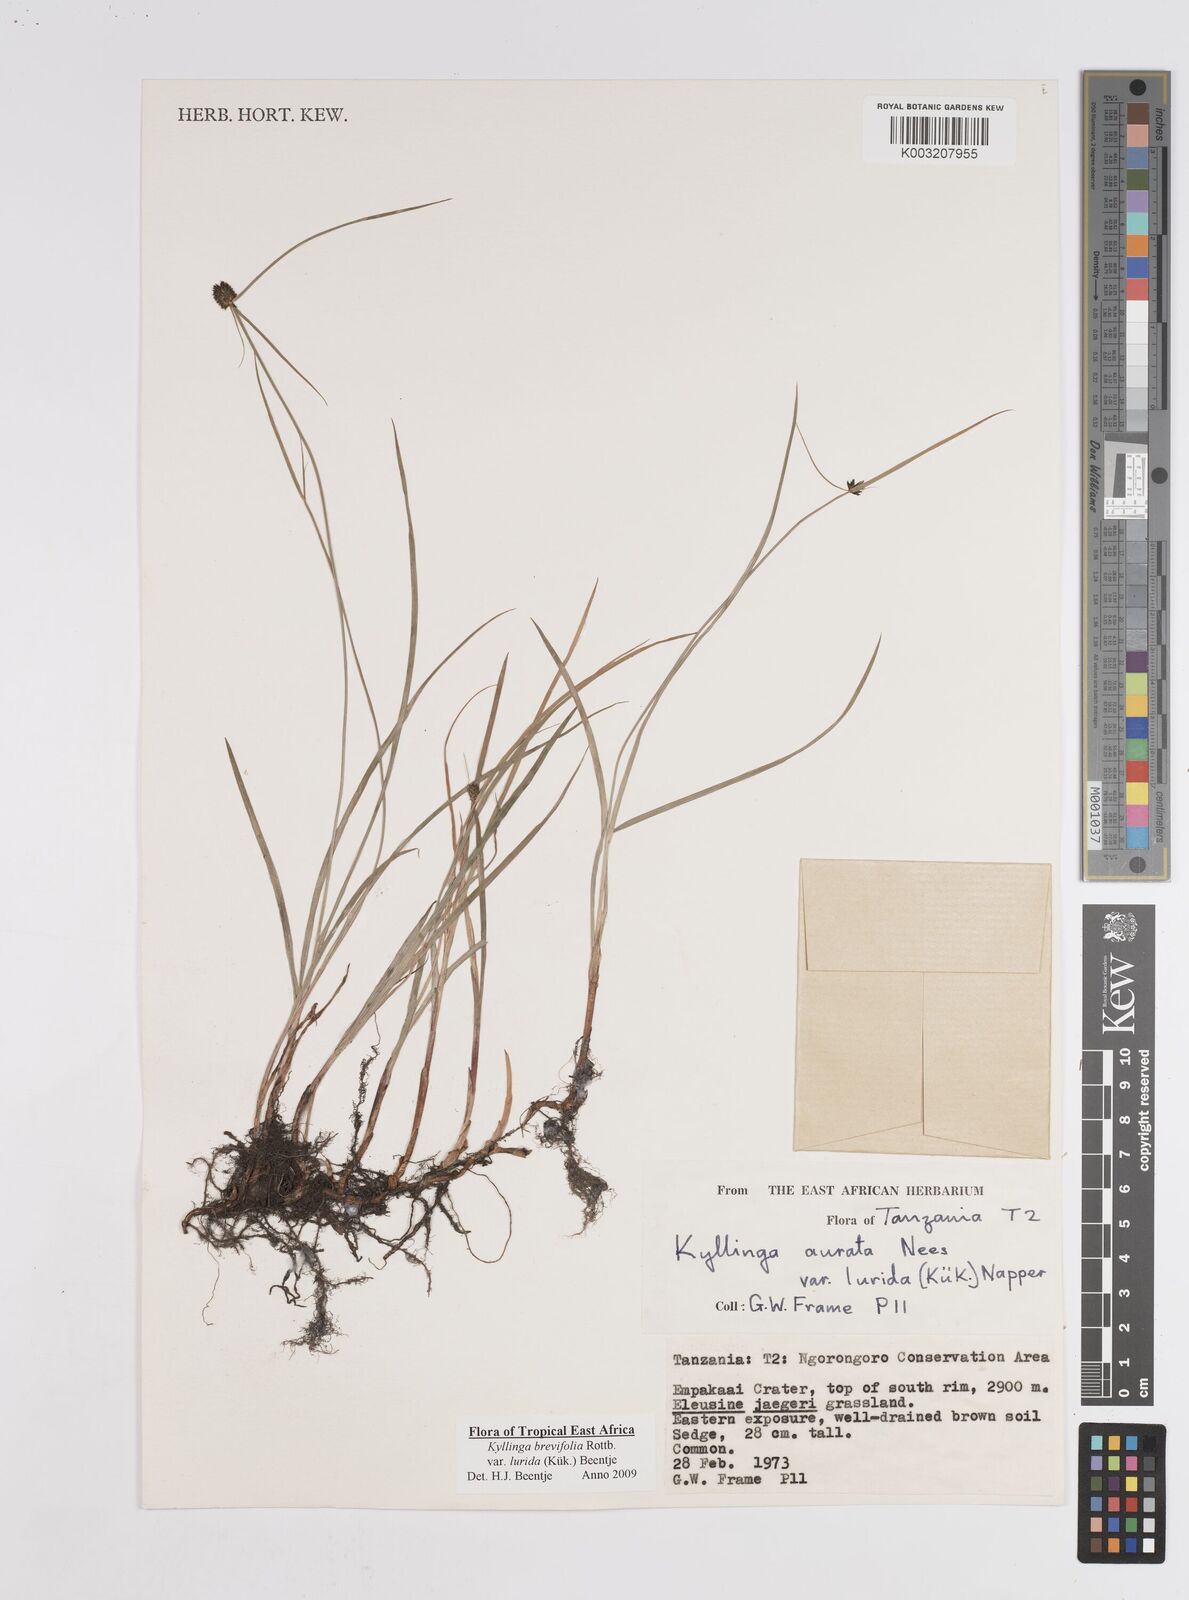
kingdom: Plantae
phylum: Tracheophyta
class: Liliopsida
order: Poales
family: Cyperaceae
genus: Cyperus
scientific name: Cyperus erectus
